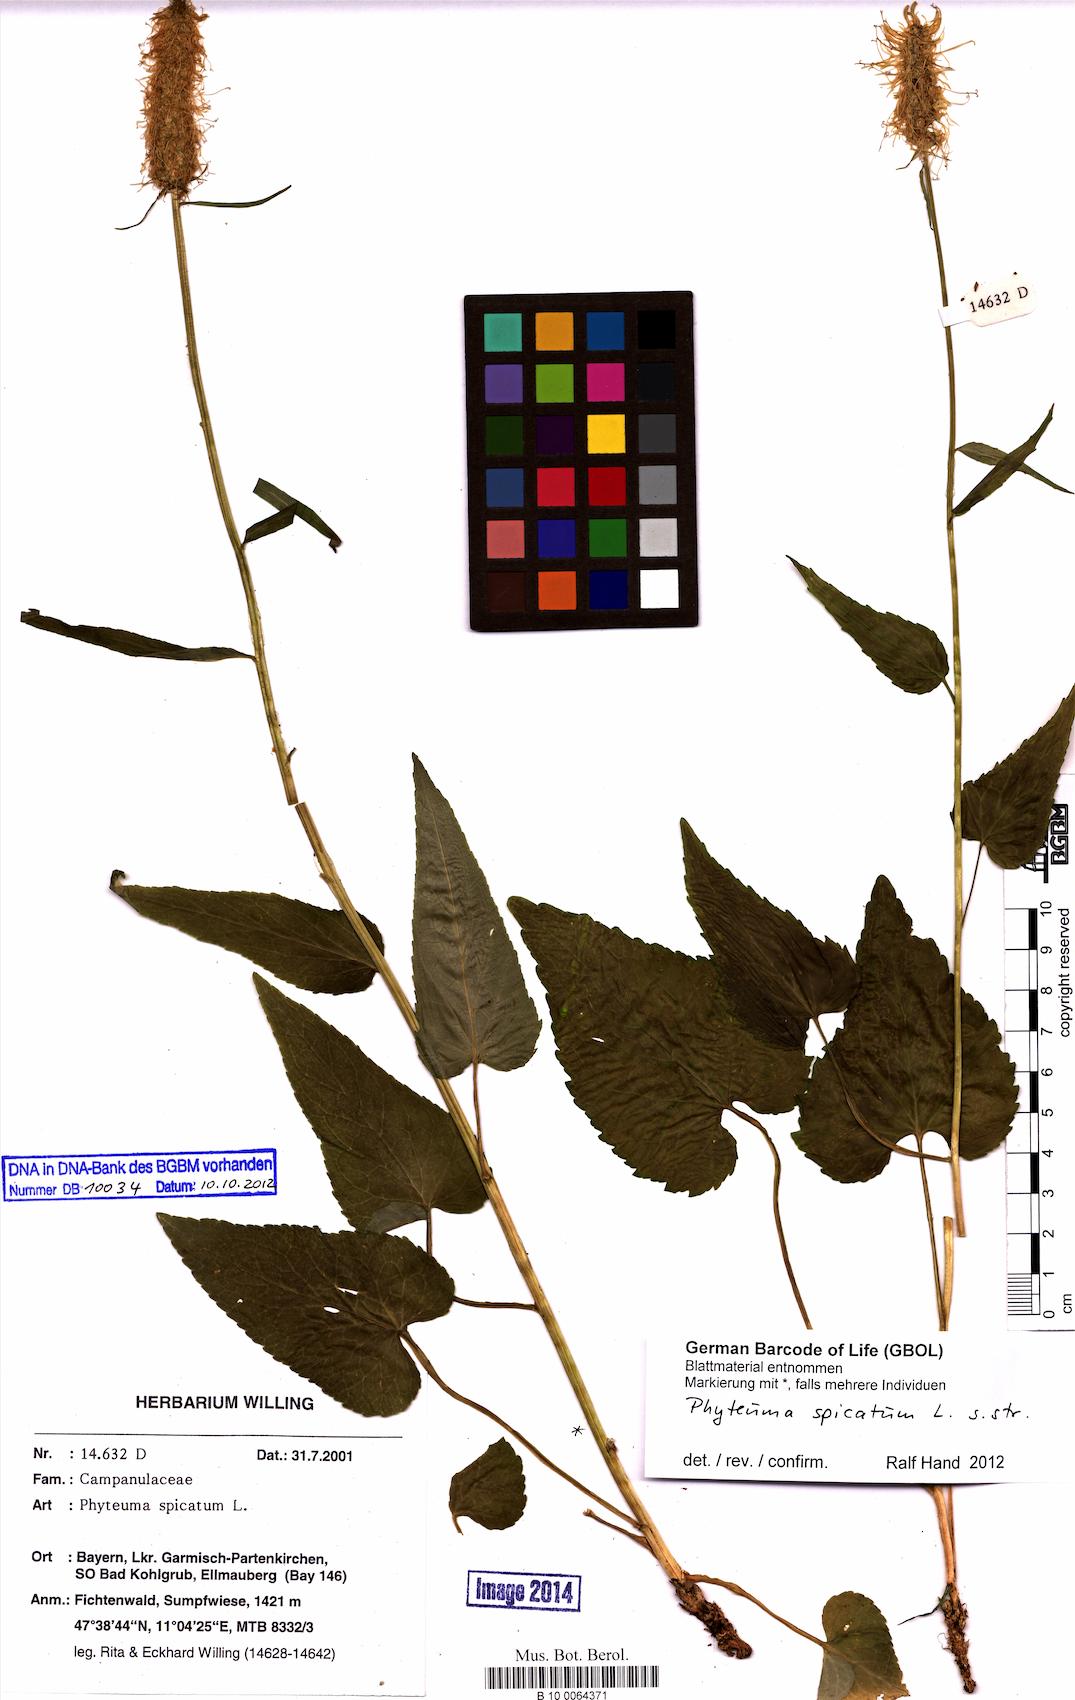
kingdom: Plantae
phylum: Tracheophyta
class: Magnoliopsida
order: Asterales
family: Campanulaceae
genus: Phyteuma
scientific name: Phyteuma spicatum
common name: Spiked rampion
